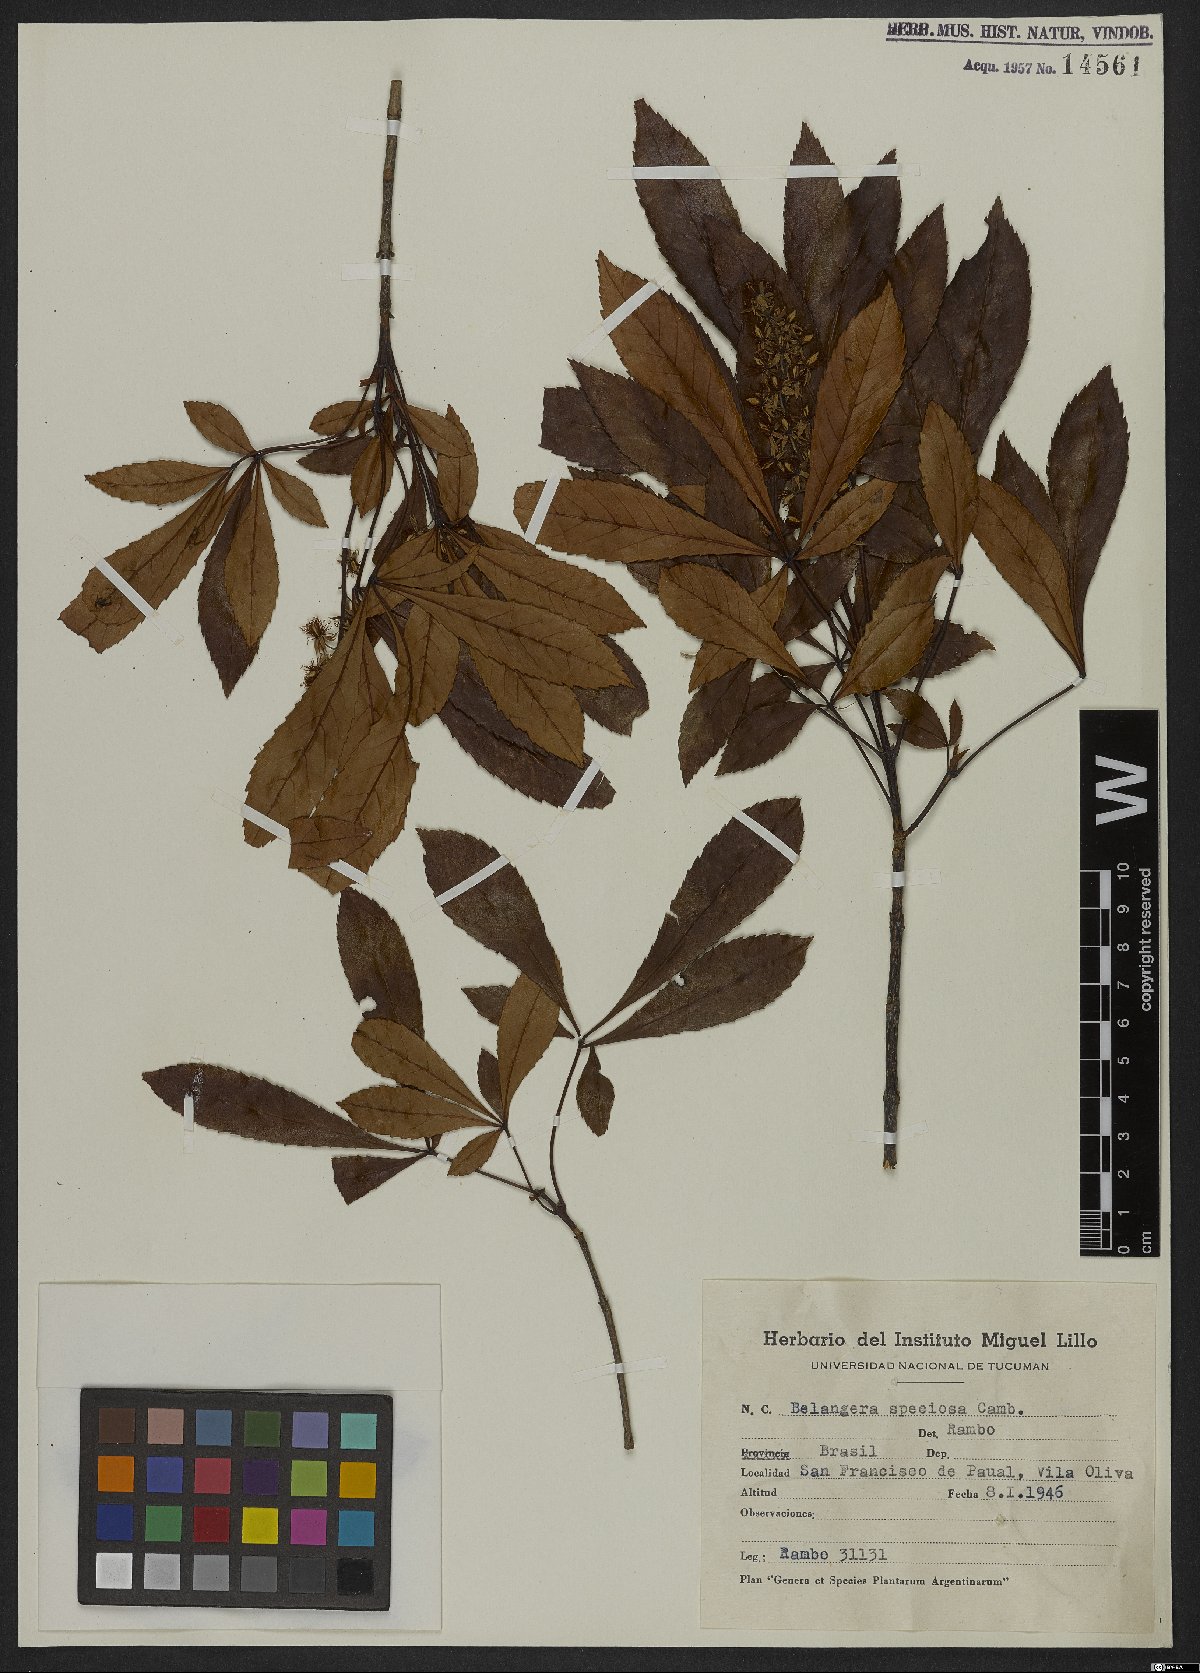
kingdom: Plantae
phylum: Tracheophyta
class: Magnoliopsida
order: Oxalidales
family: Cunoniaceae
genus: Lamanonia
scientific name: Lamanonia speciosa
